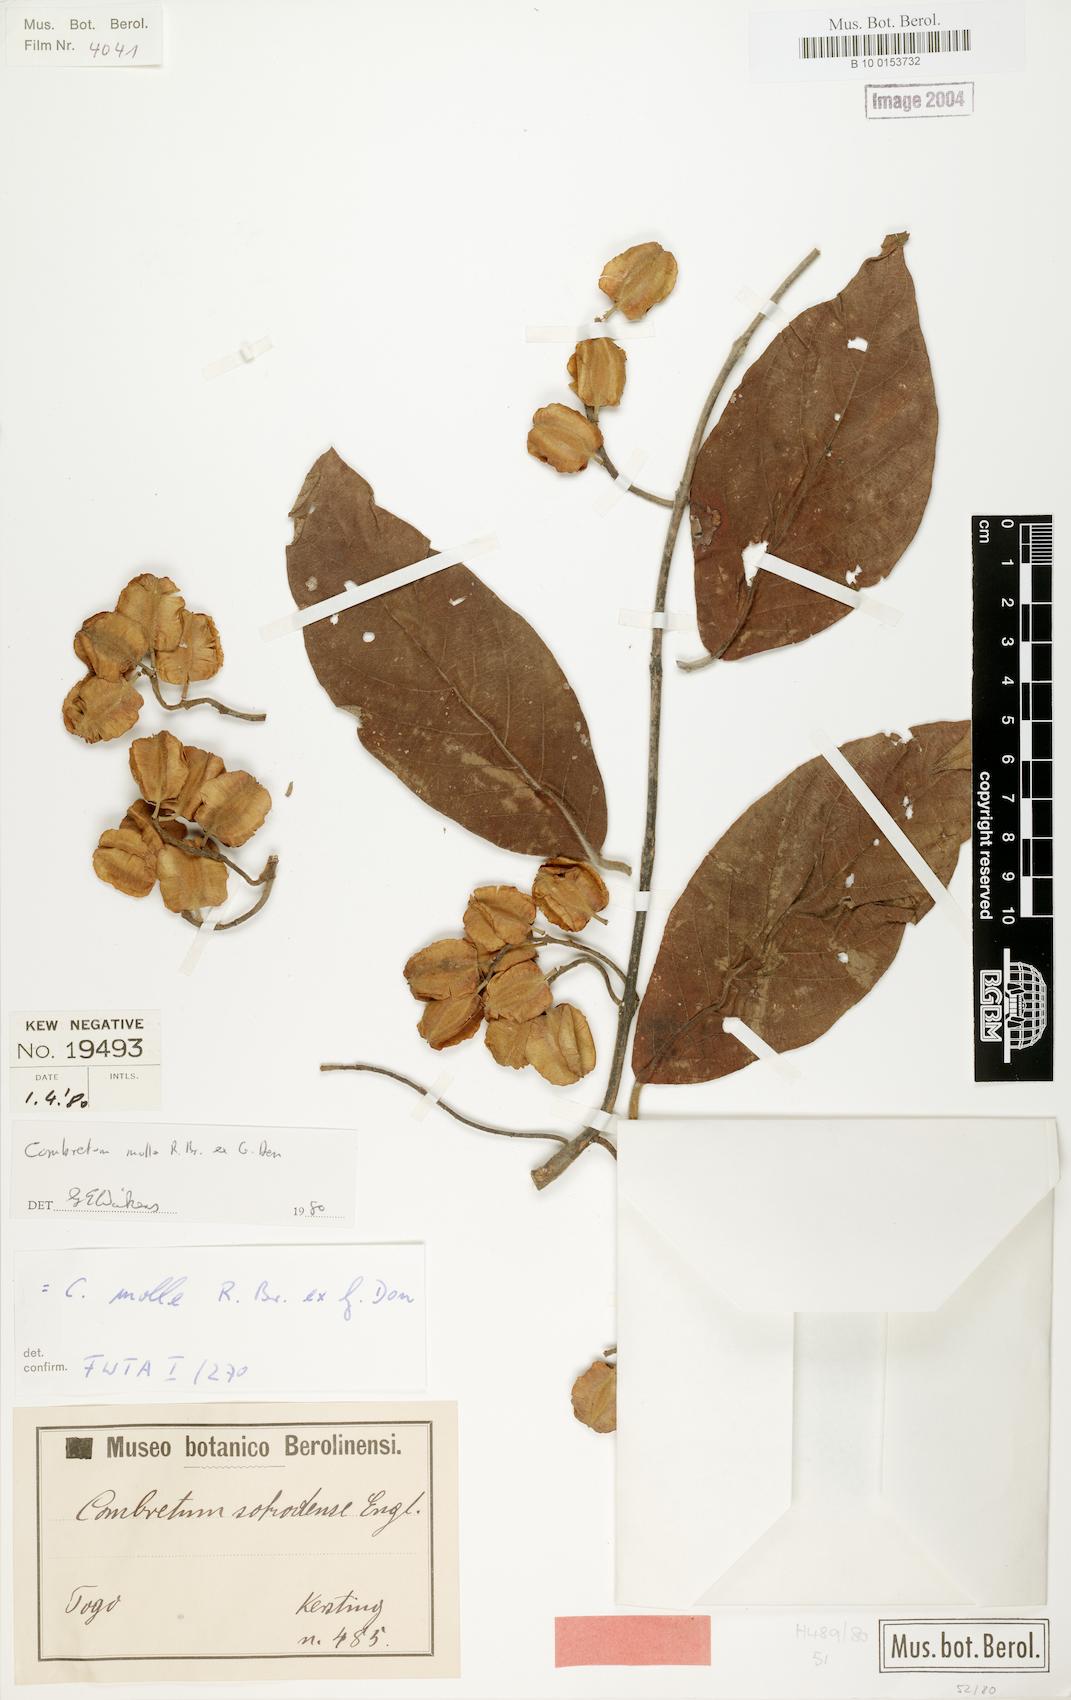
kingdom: Plantae
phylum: Tracheophyta
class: Magnoliopsida
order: Myrtales
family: Combretaceae
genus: Combretum
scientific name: Combretum molle
